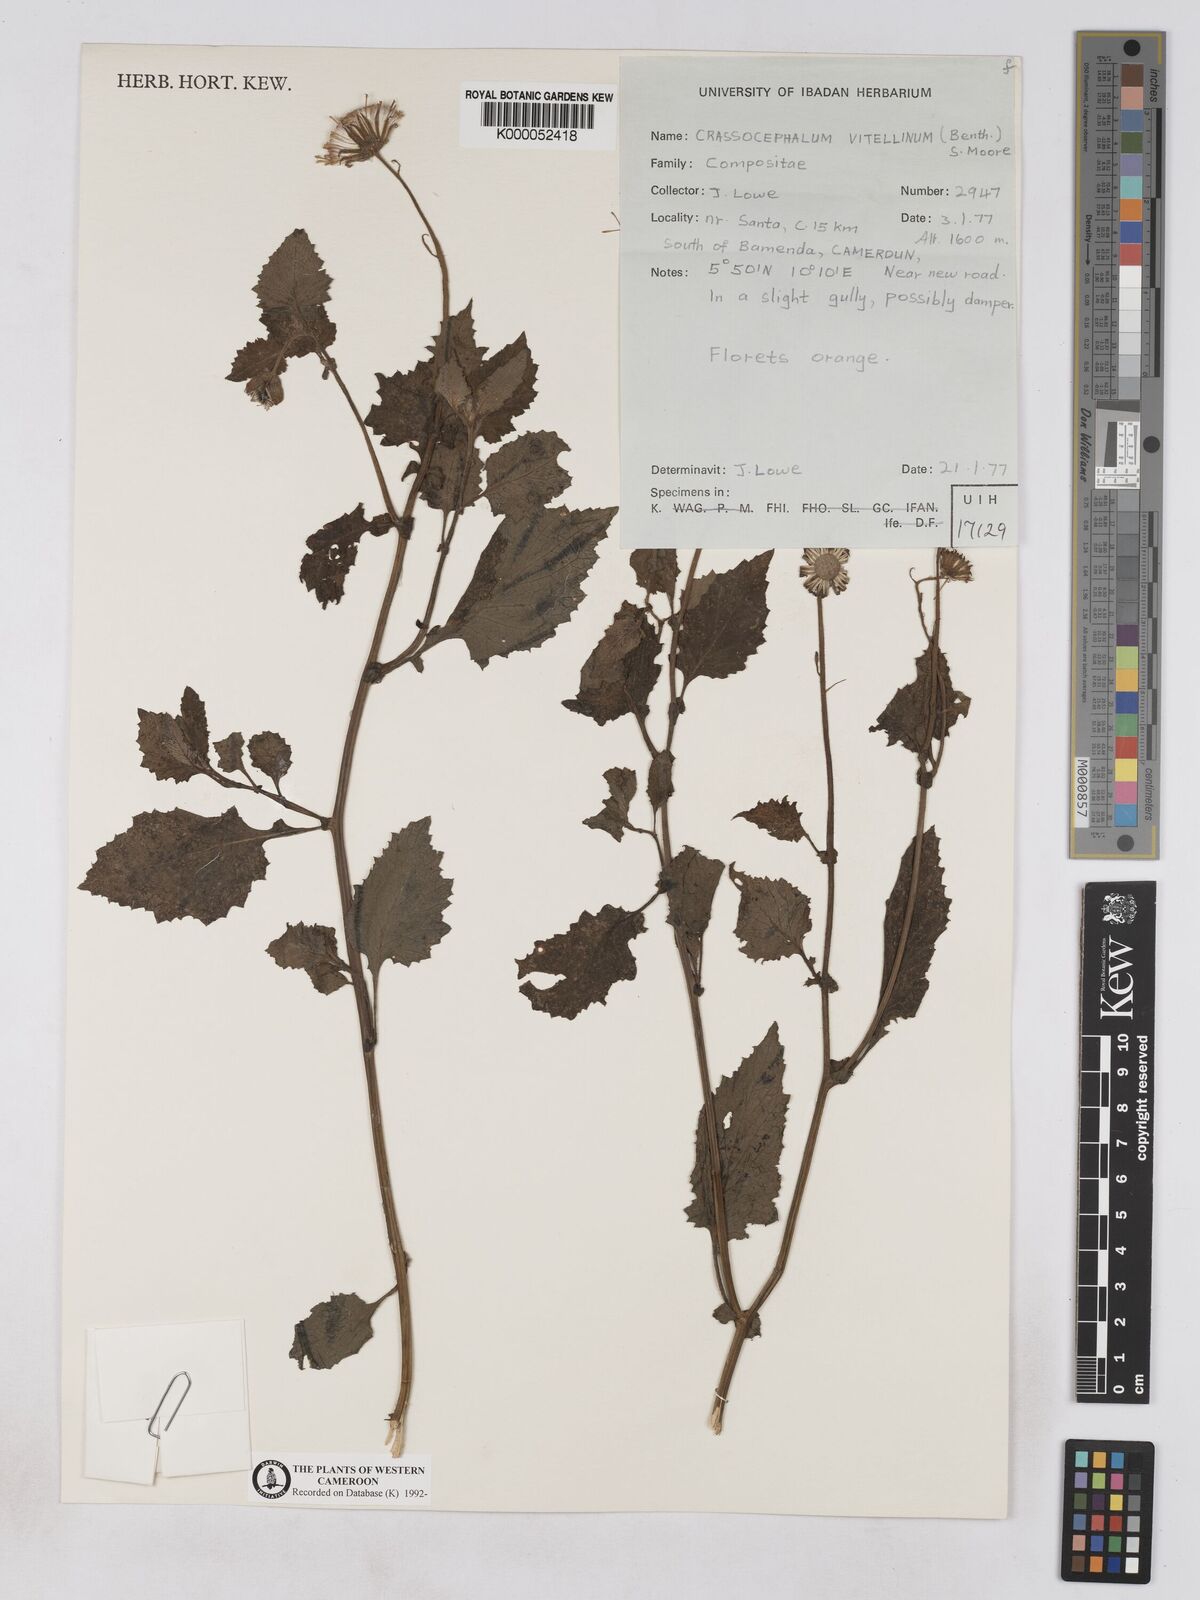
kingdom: Plantae
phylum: Tracheophyta
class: Magnoliopsida
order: Asterales
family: Asteraceae
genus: Crassocephalum
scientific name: Crassocephalum vitellinum
